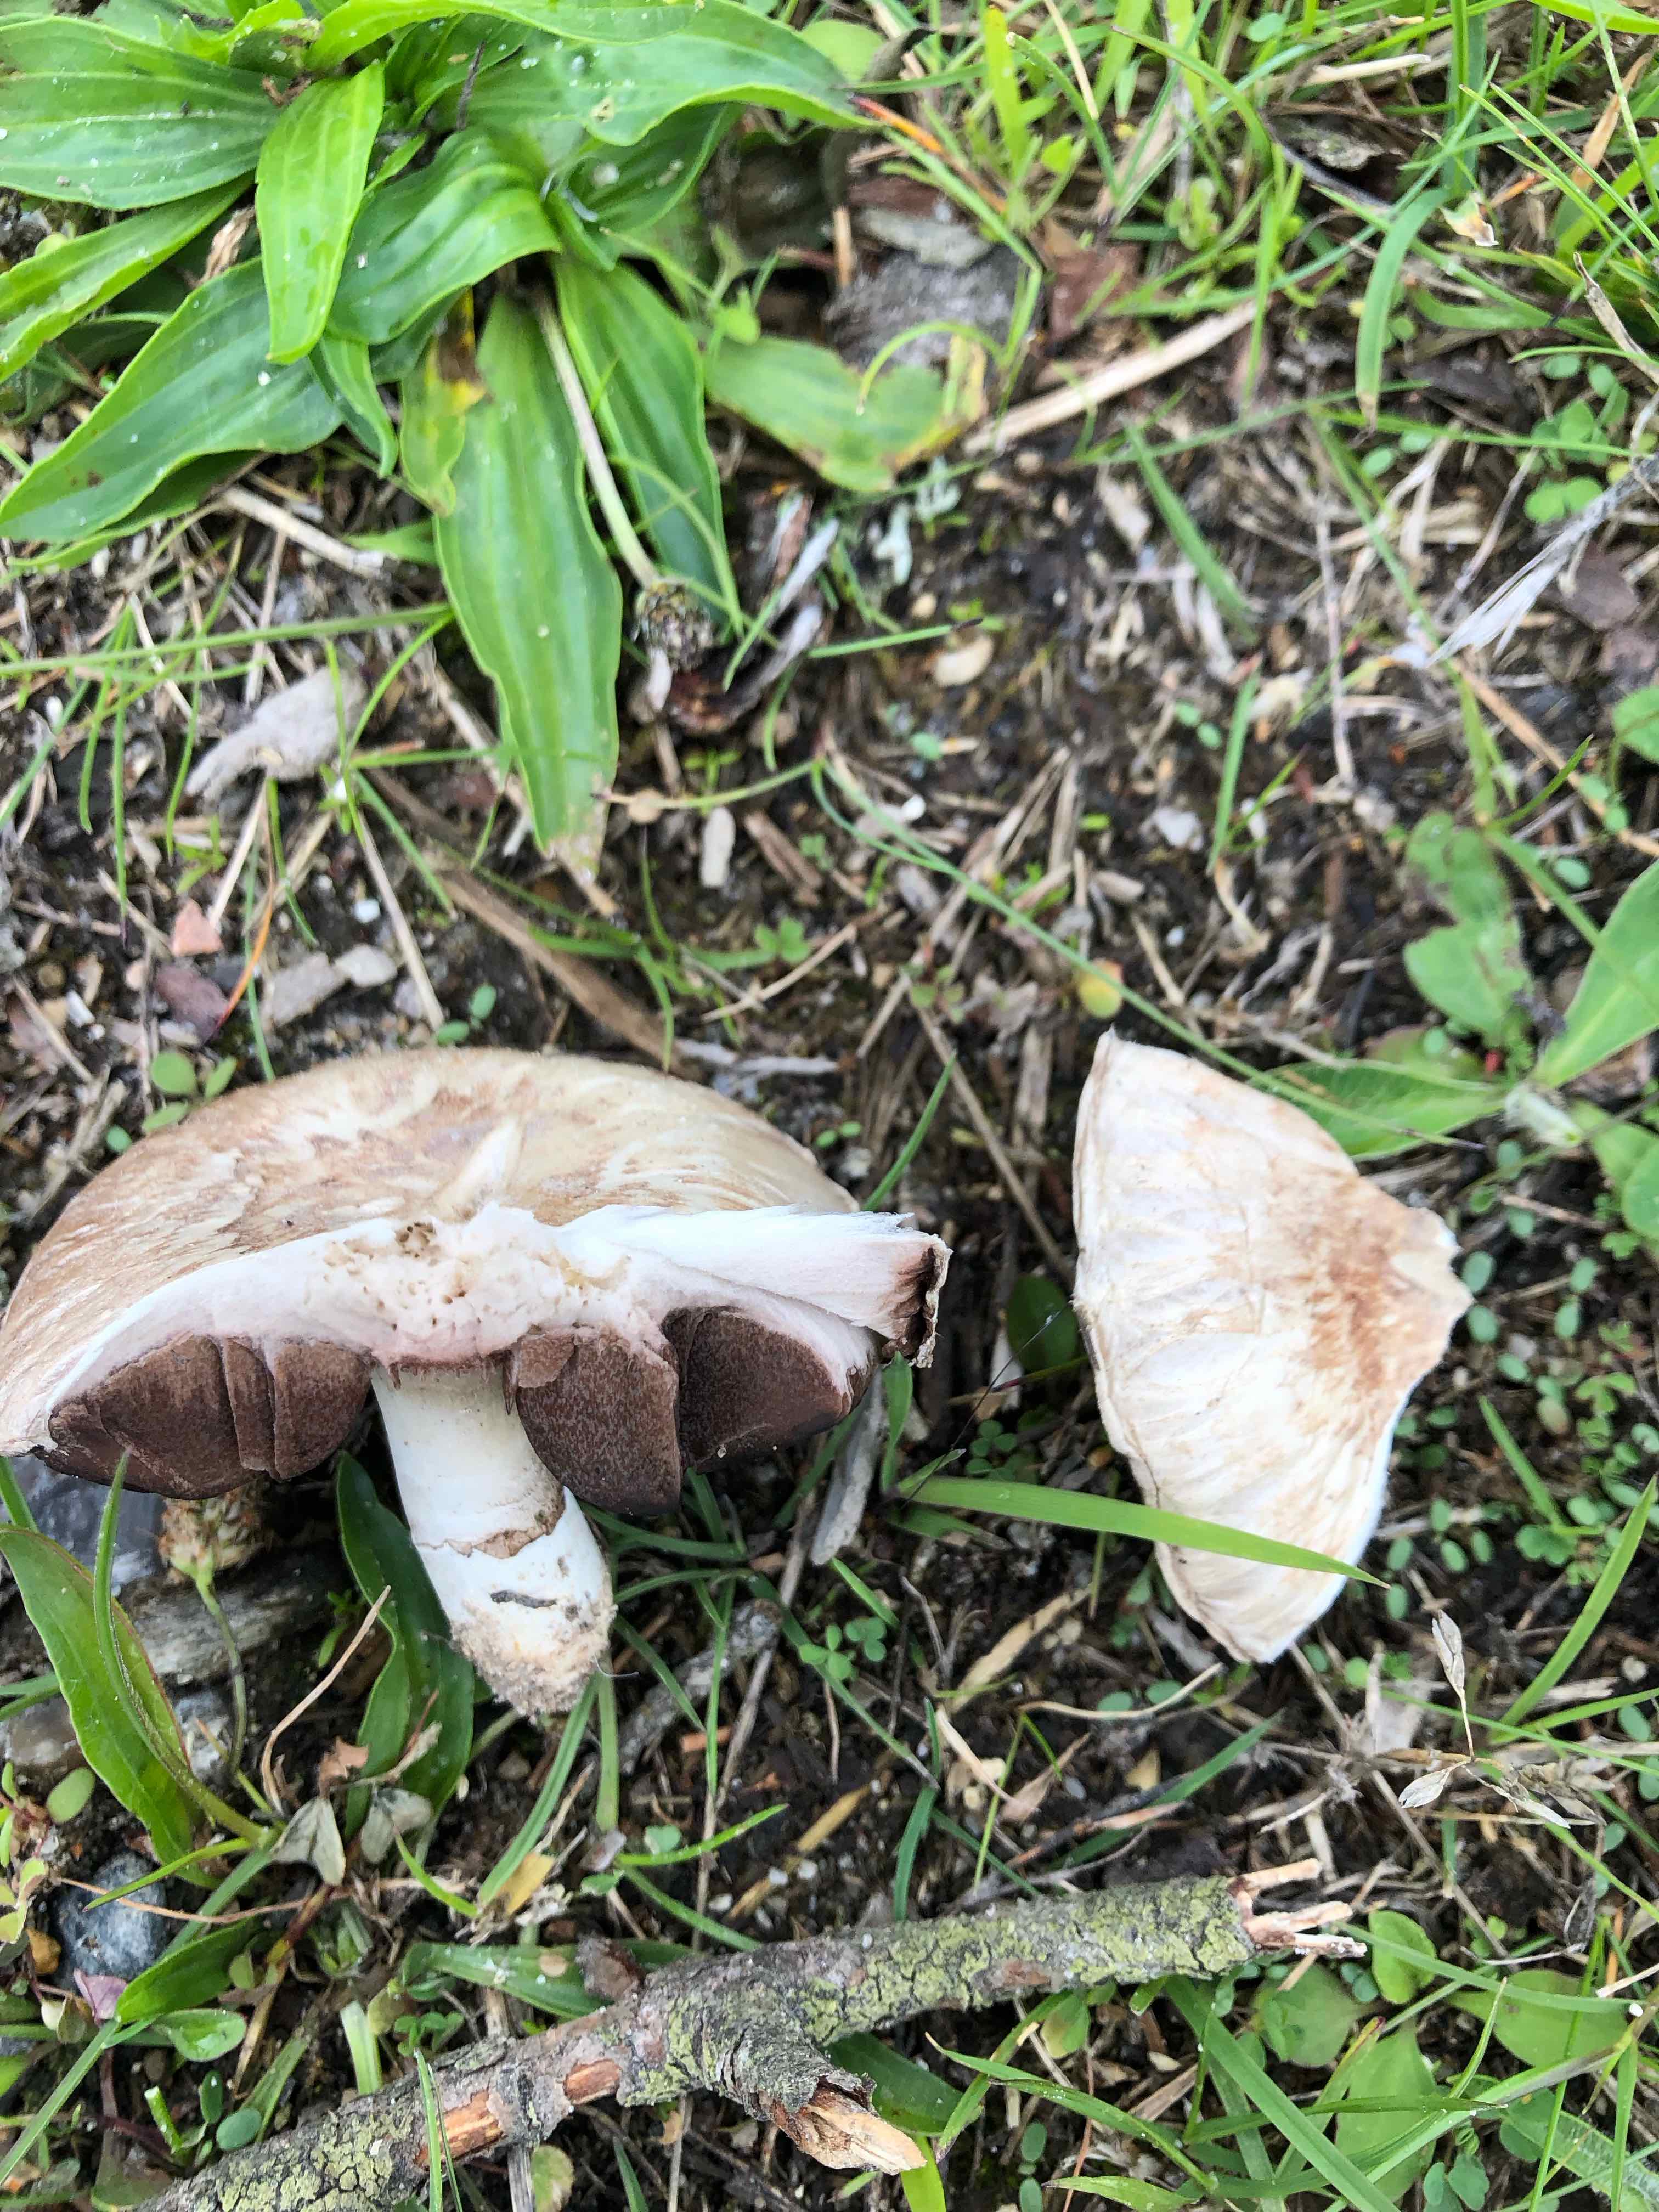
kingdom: Fungi
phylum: Basidiomycota
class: Agaricomycetes
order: Agaricales
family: Agaricaceae
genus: Agaricus
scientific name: Agaricus
